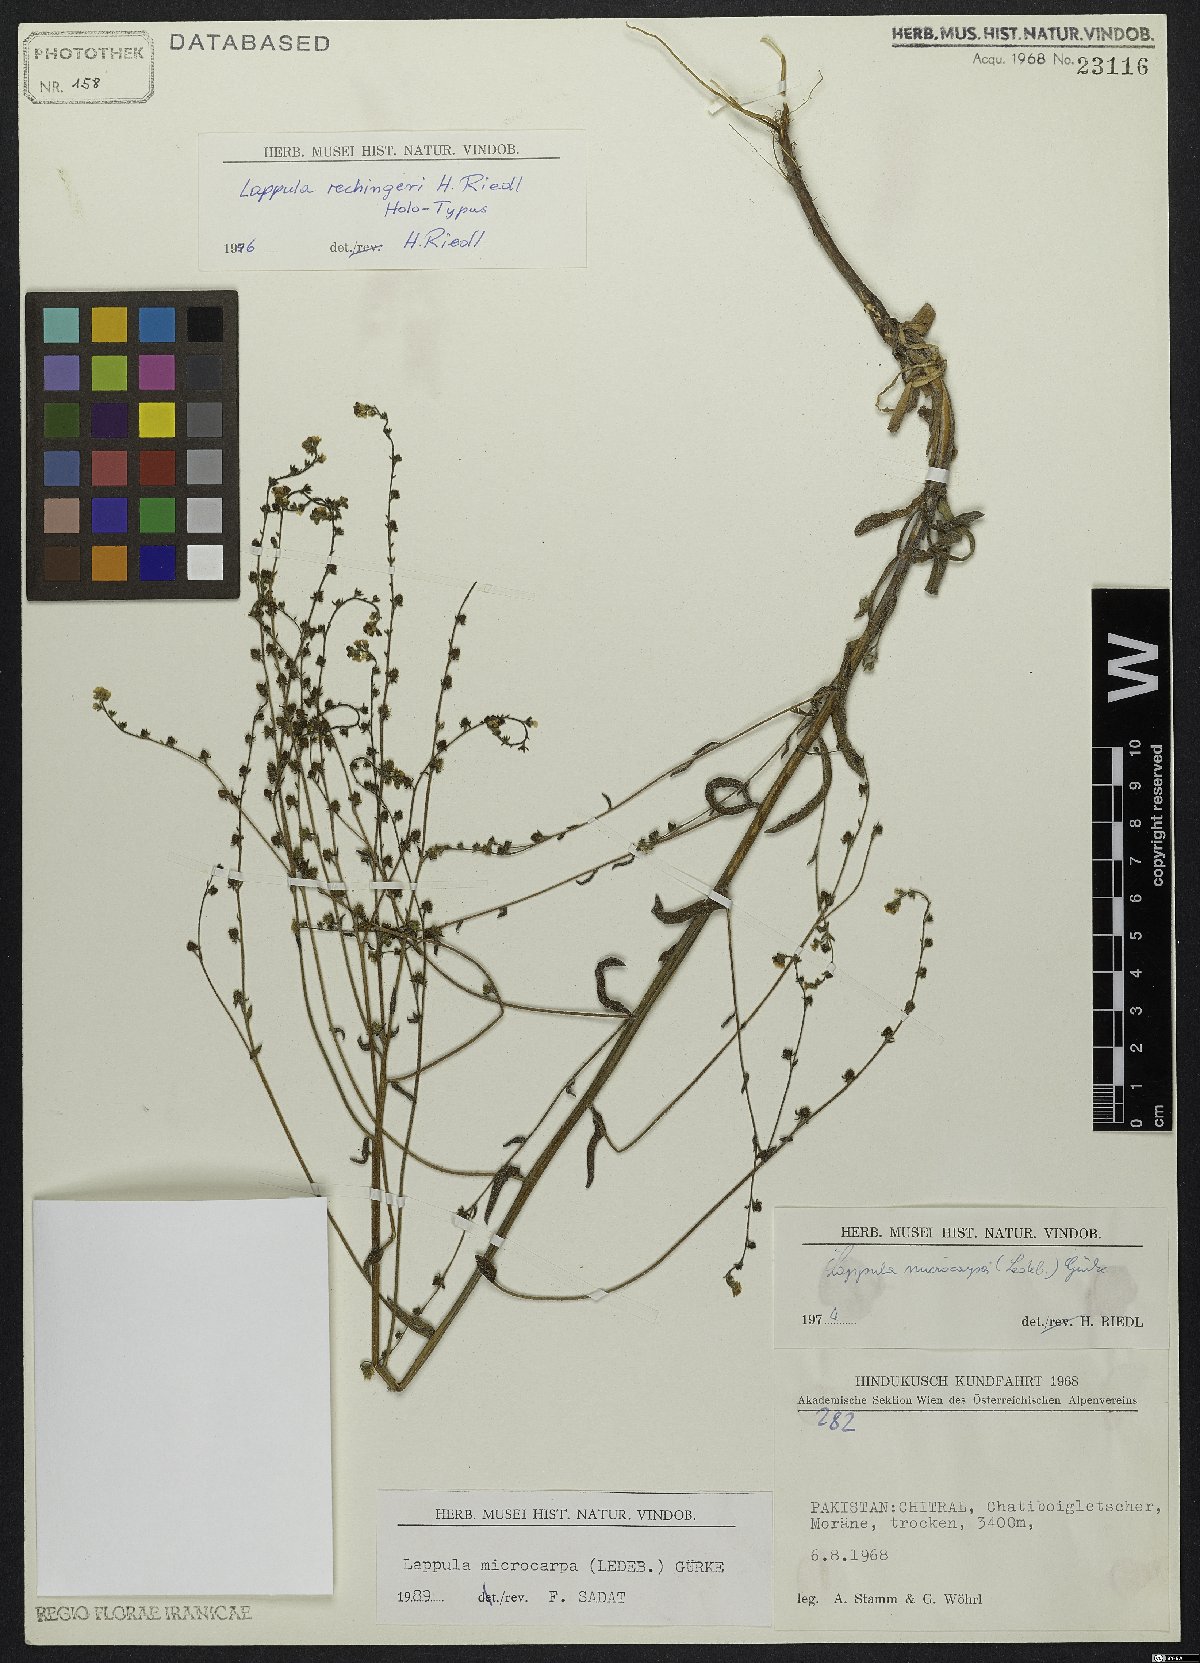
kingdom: Plantae
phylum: Tracheophyta
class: Magnoliopsida
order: Boraginales
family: Boraginaceae
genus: Lappula
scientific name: Lappula rechingeri
